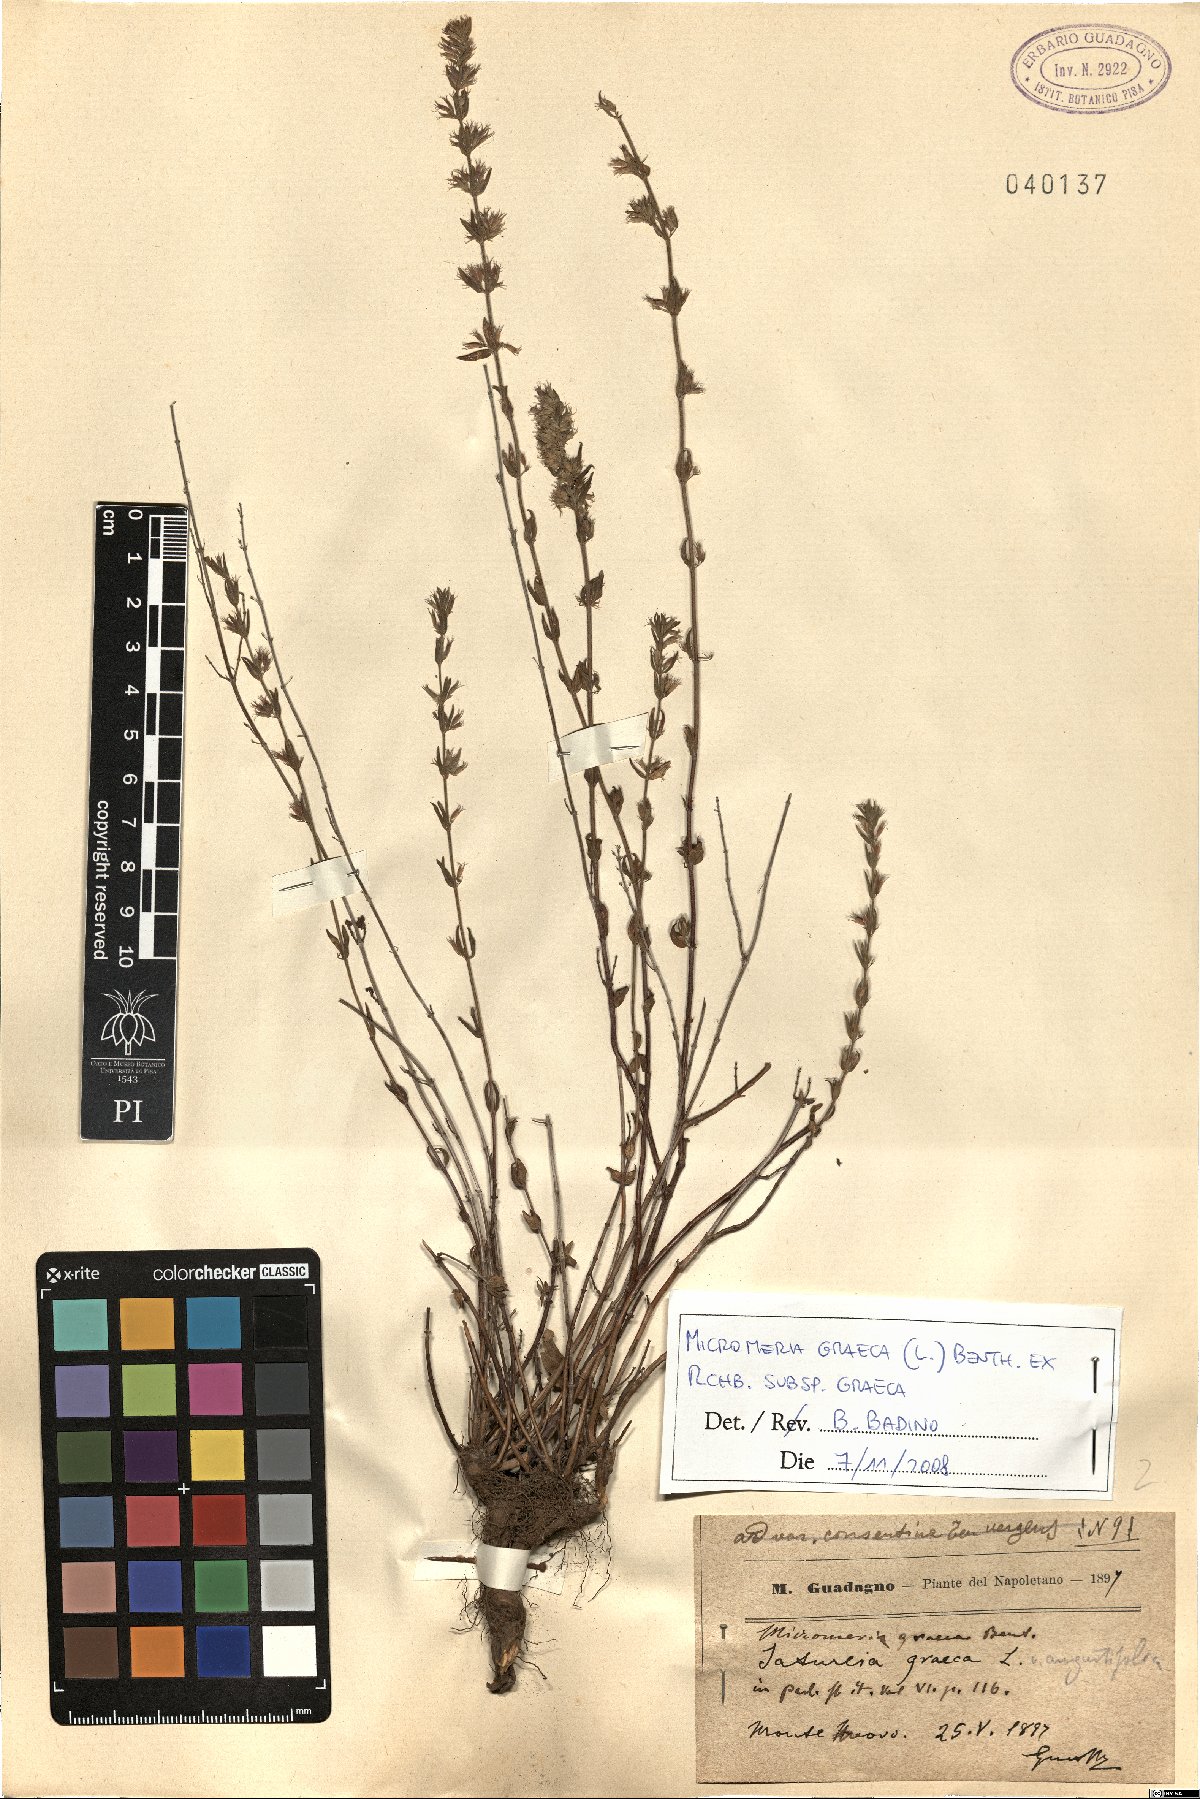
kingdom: Plantae
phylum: Tracheophyta
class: Magnoliopsida
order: Lamiales
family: Lamiaceae
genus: Micromeria
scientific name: Micromeria graeca
